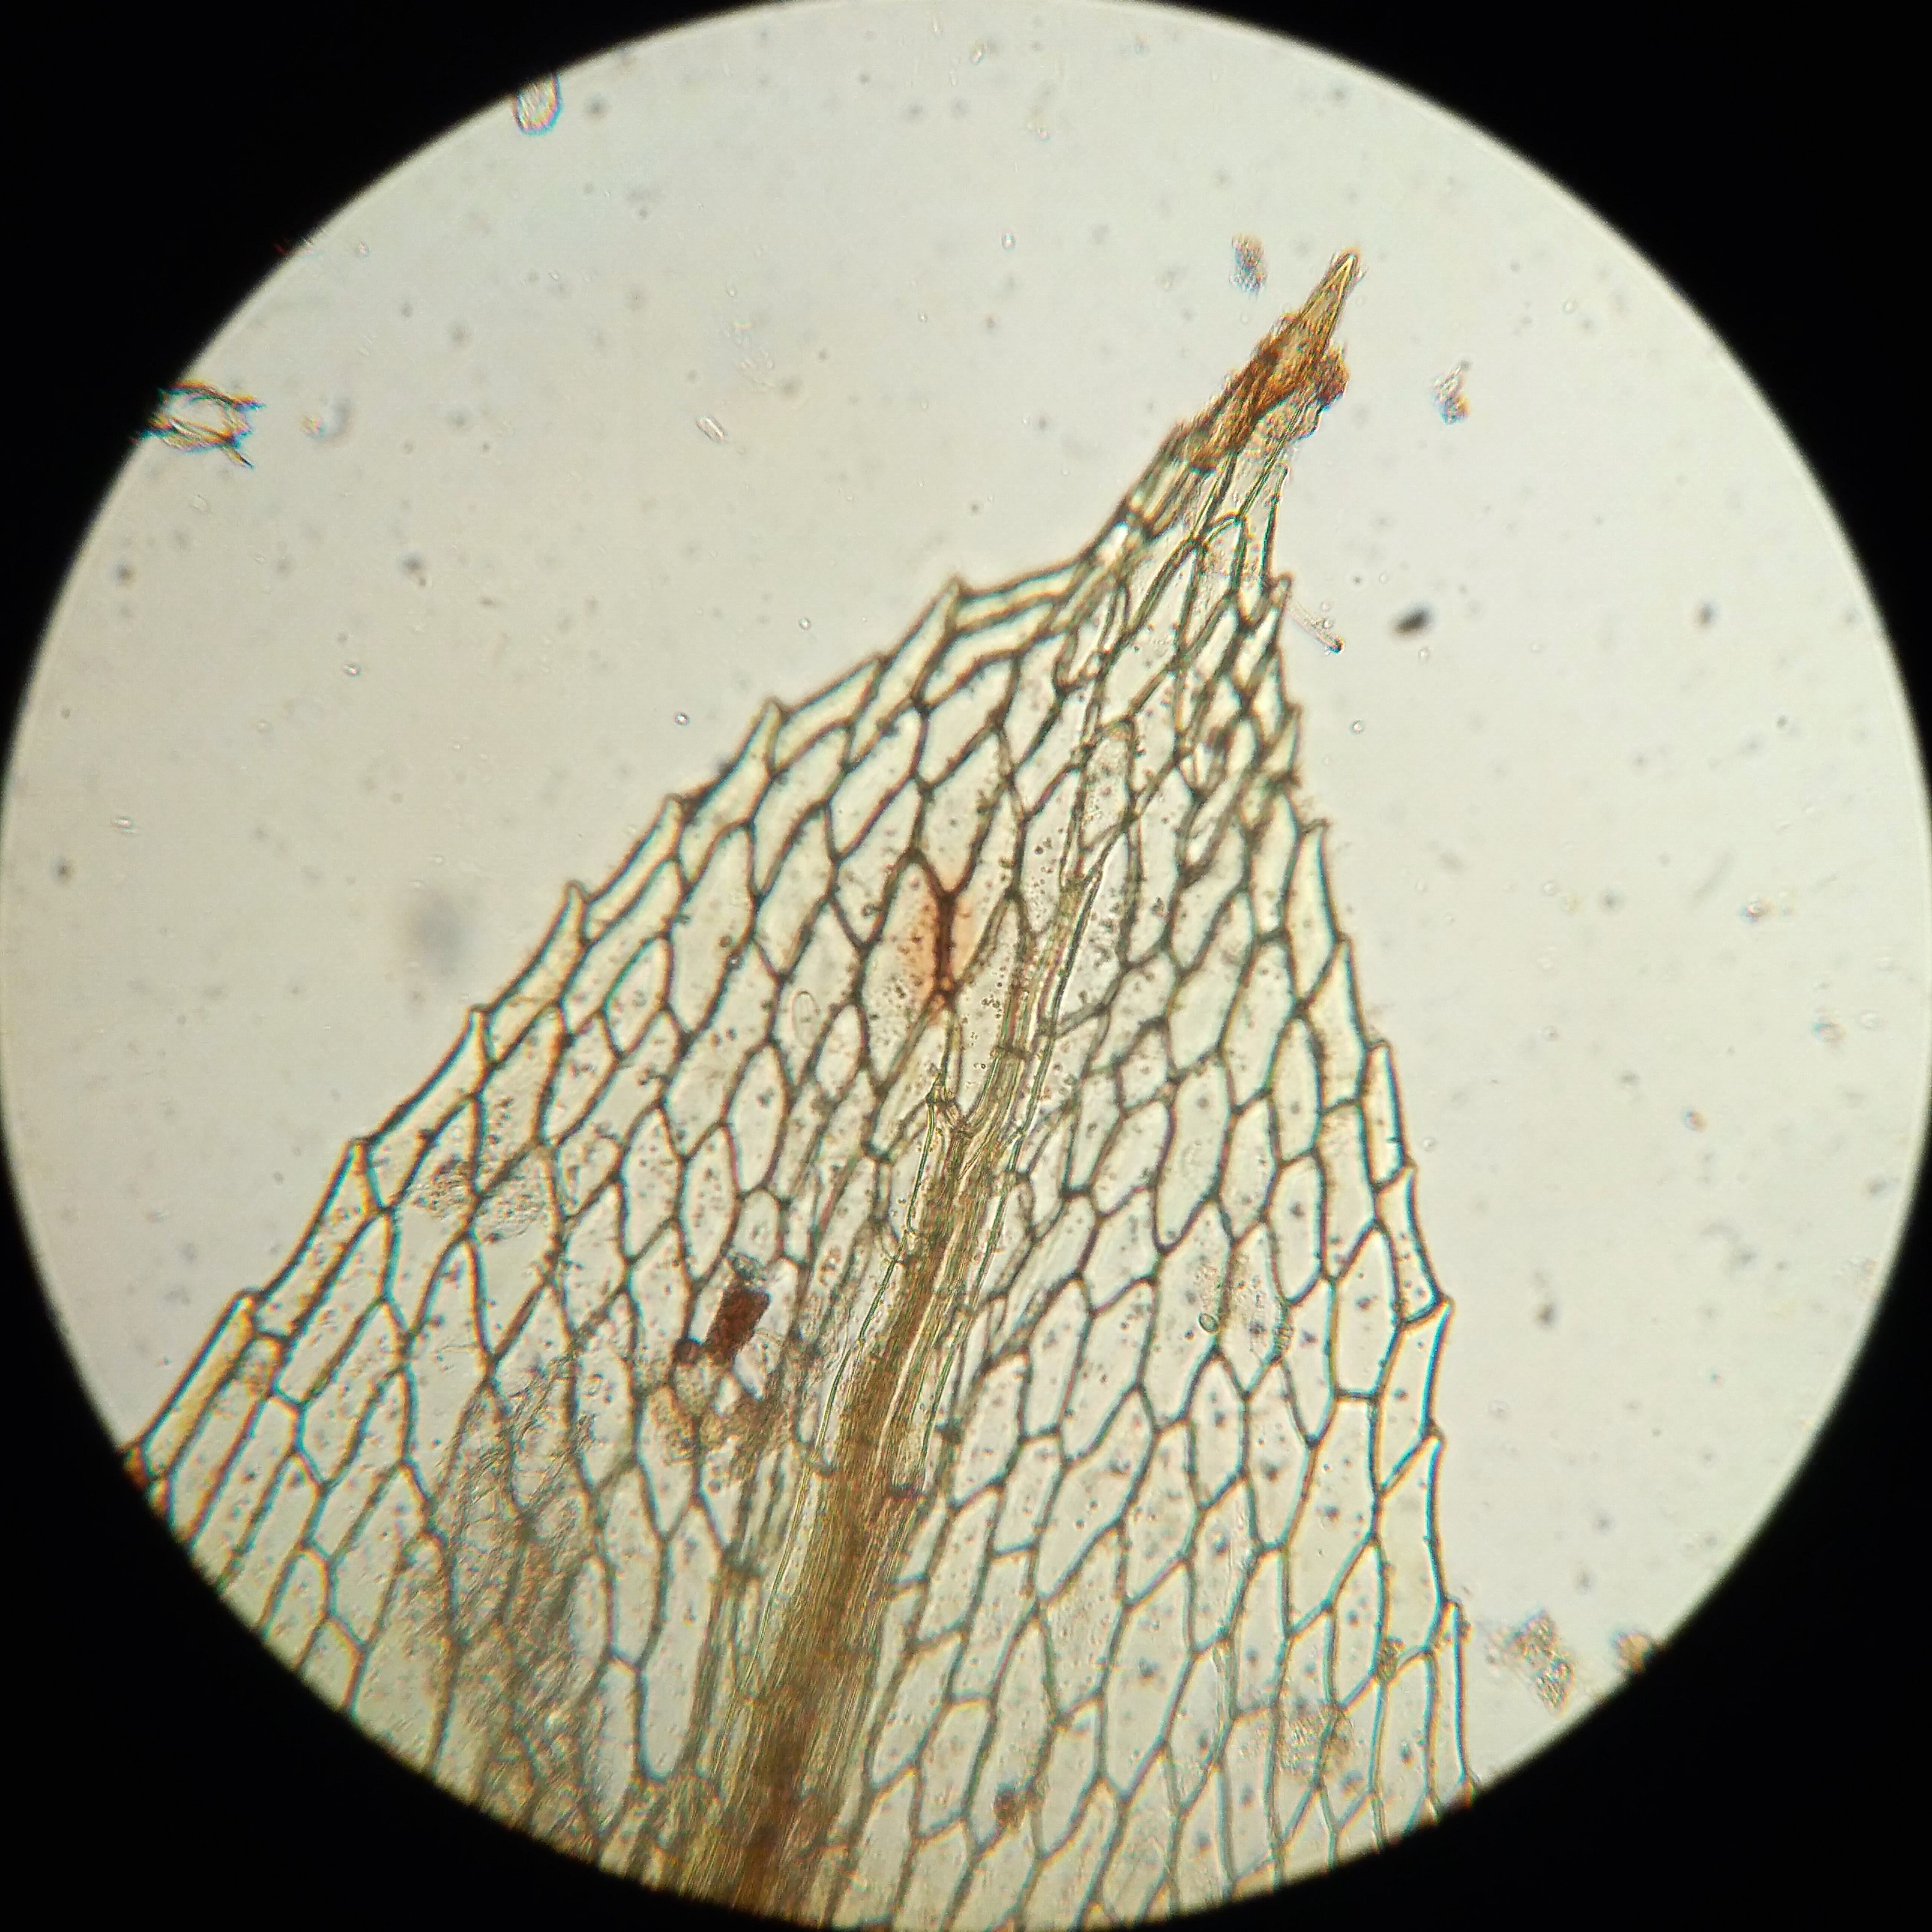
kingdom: Plantae
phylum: Bryophyta
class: Bryopsida
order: Splachnales
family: Meesiaceae
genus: Amblyodon
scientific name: Amblyodon dealbatus
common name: Almindelig stumptand
